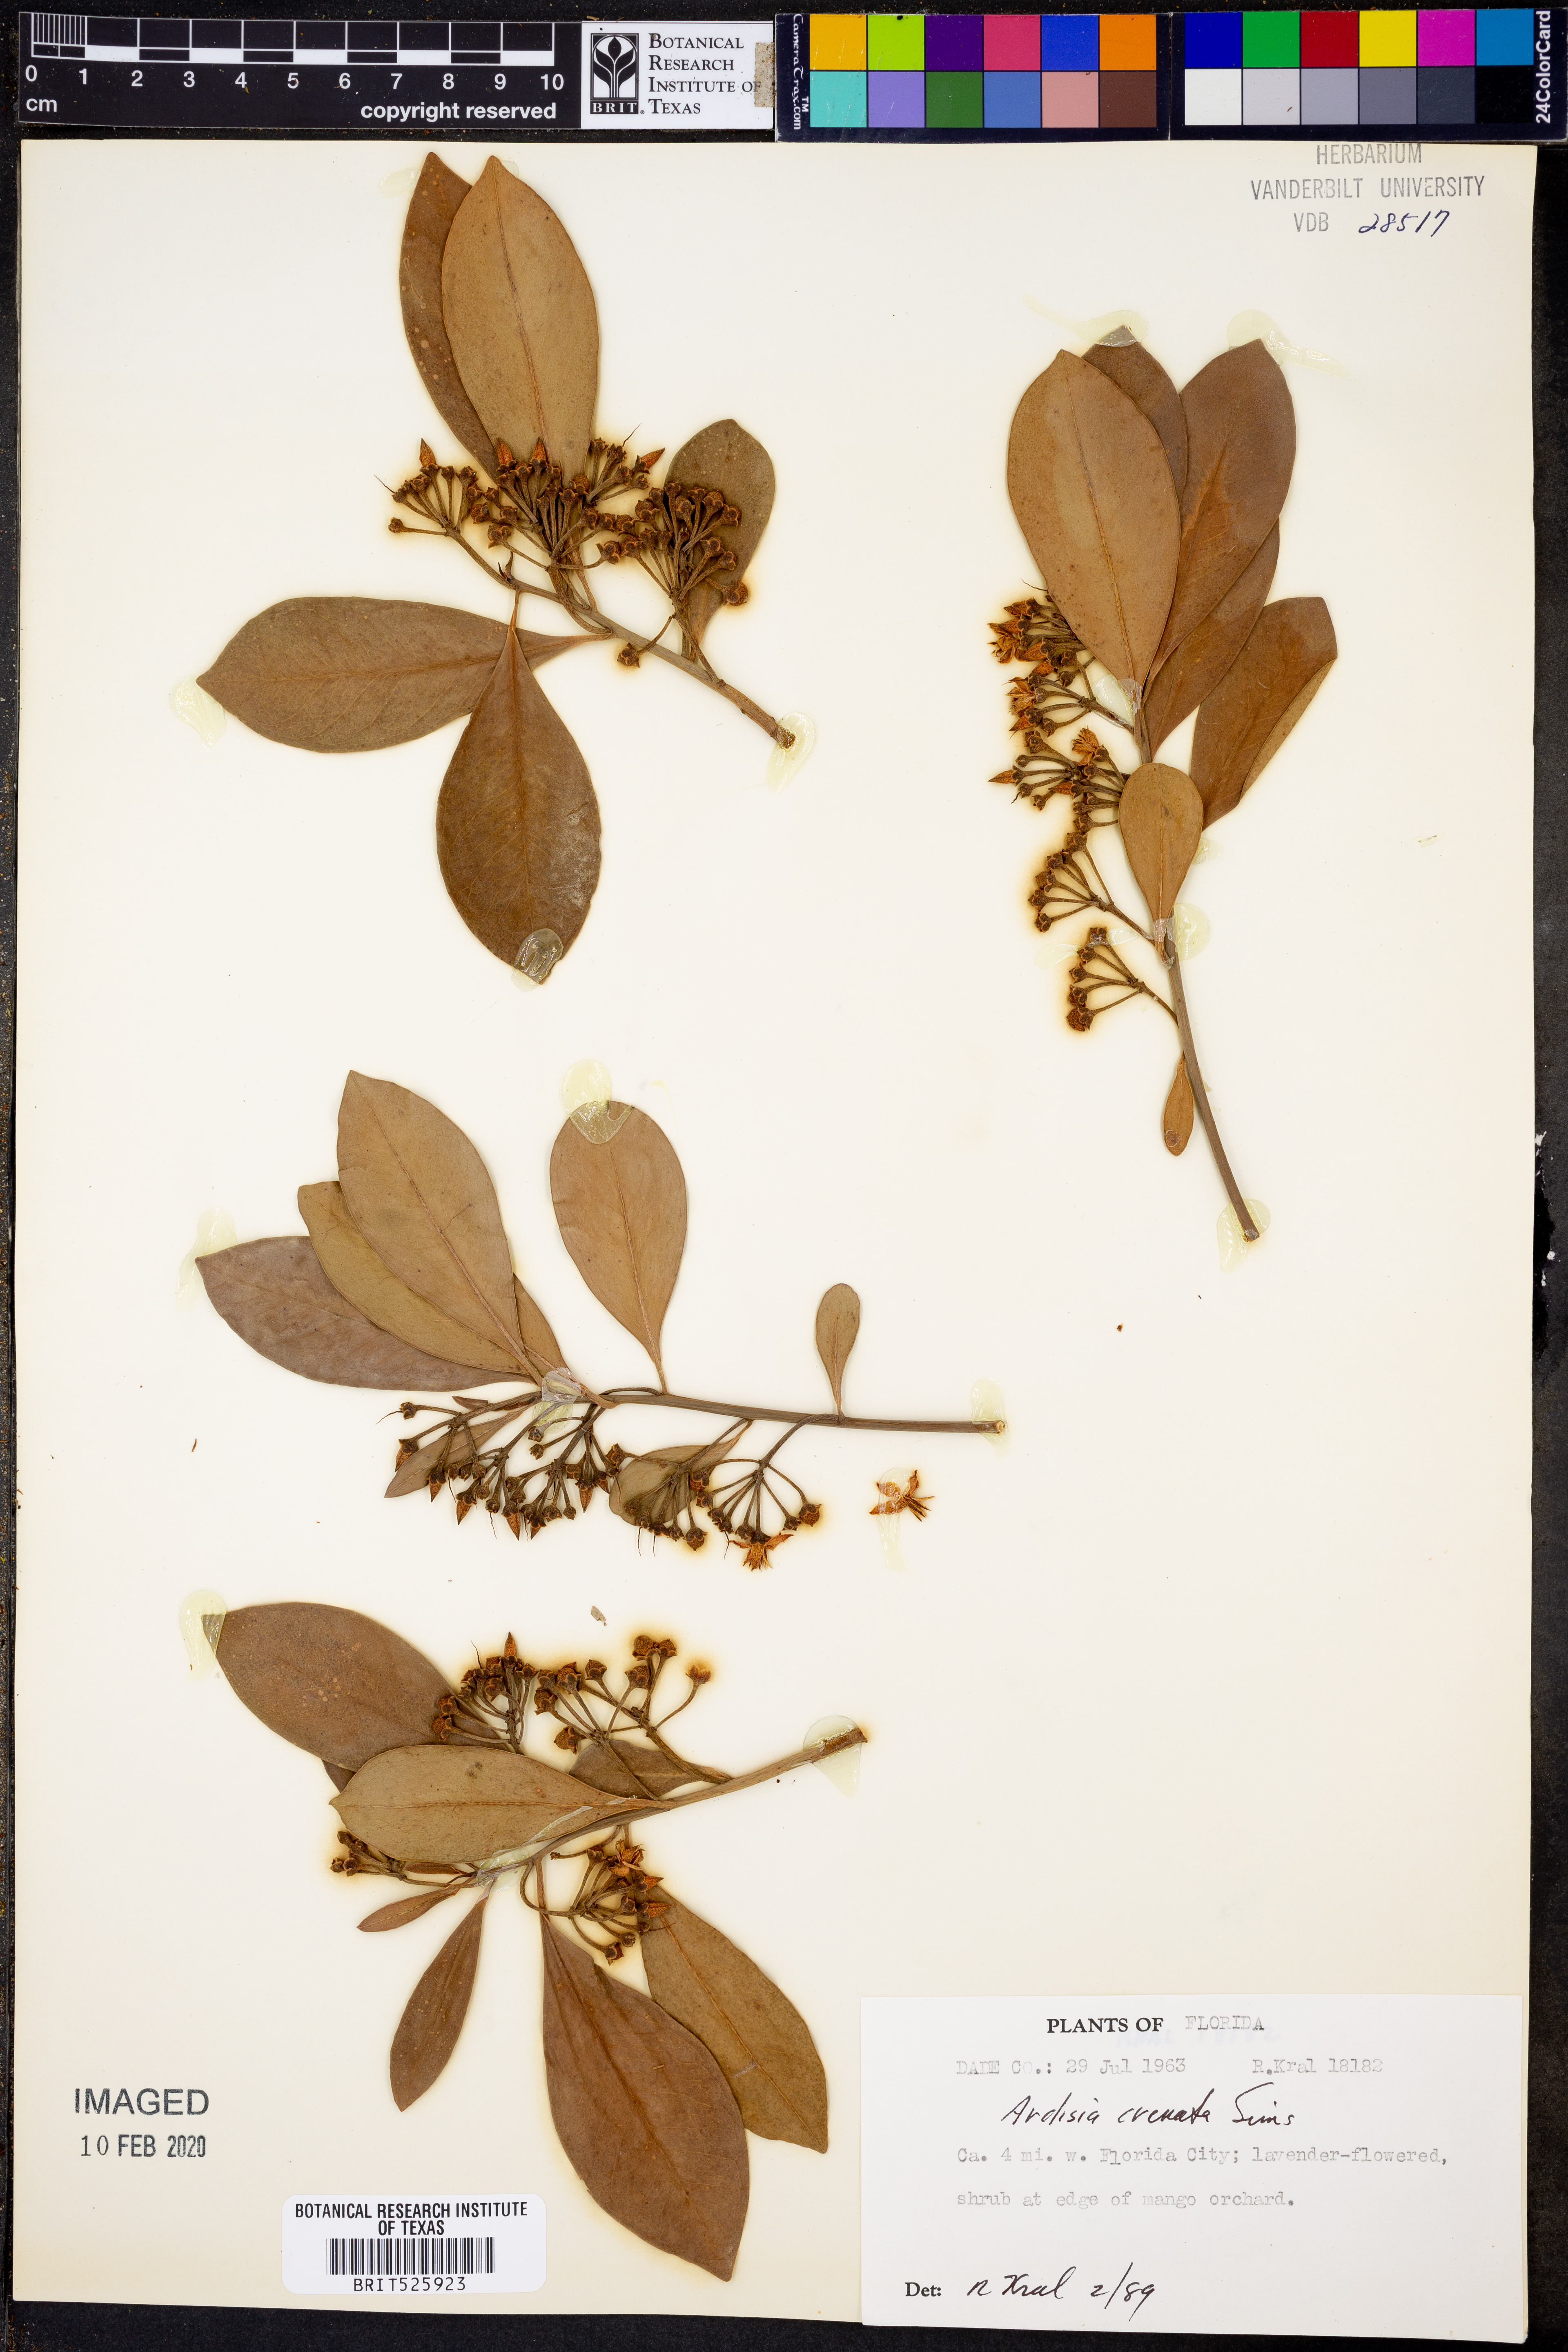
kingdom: Plantae
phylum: Tracheophyta
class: Magnoliopsida
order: Ericales
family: Primulaceae
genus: Ardisia
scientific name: Ardisia crenata
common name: Hen's eyes
